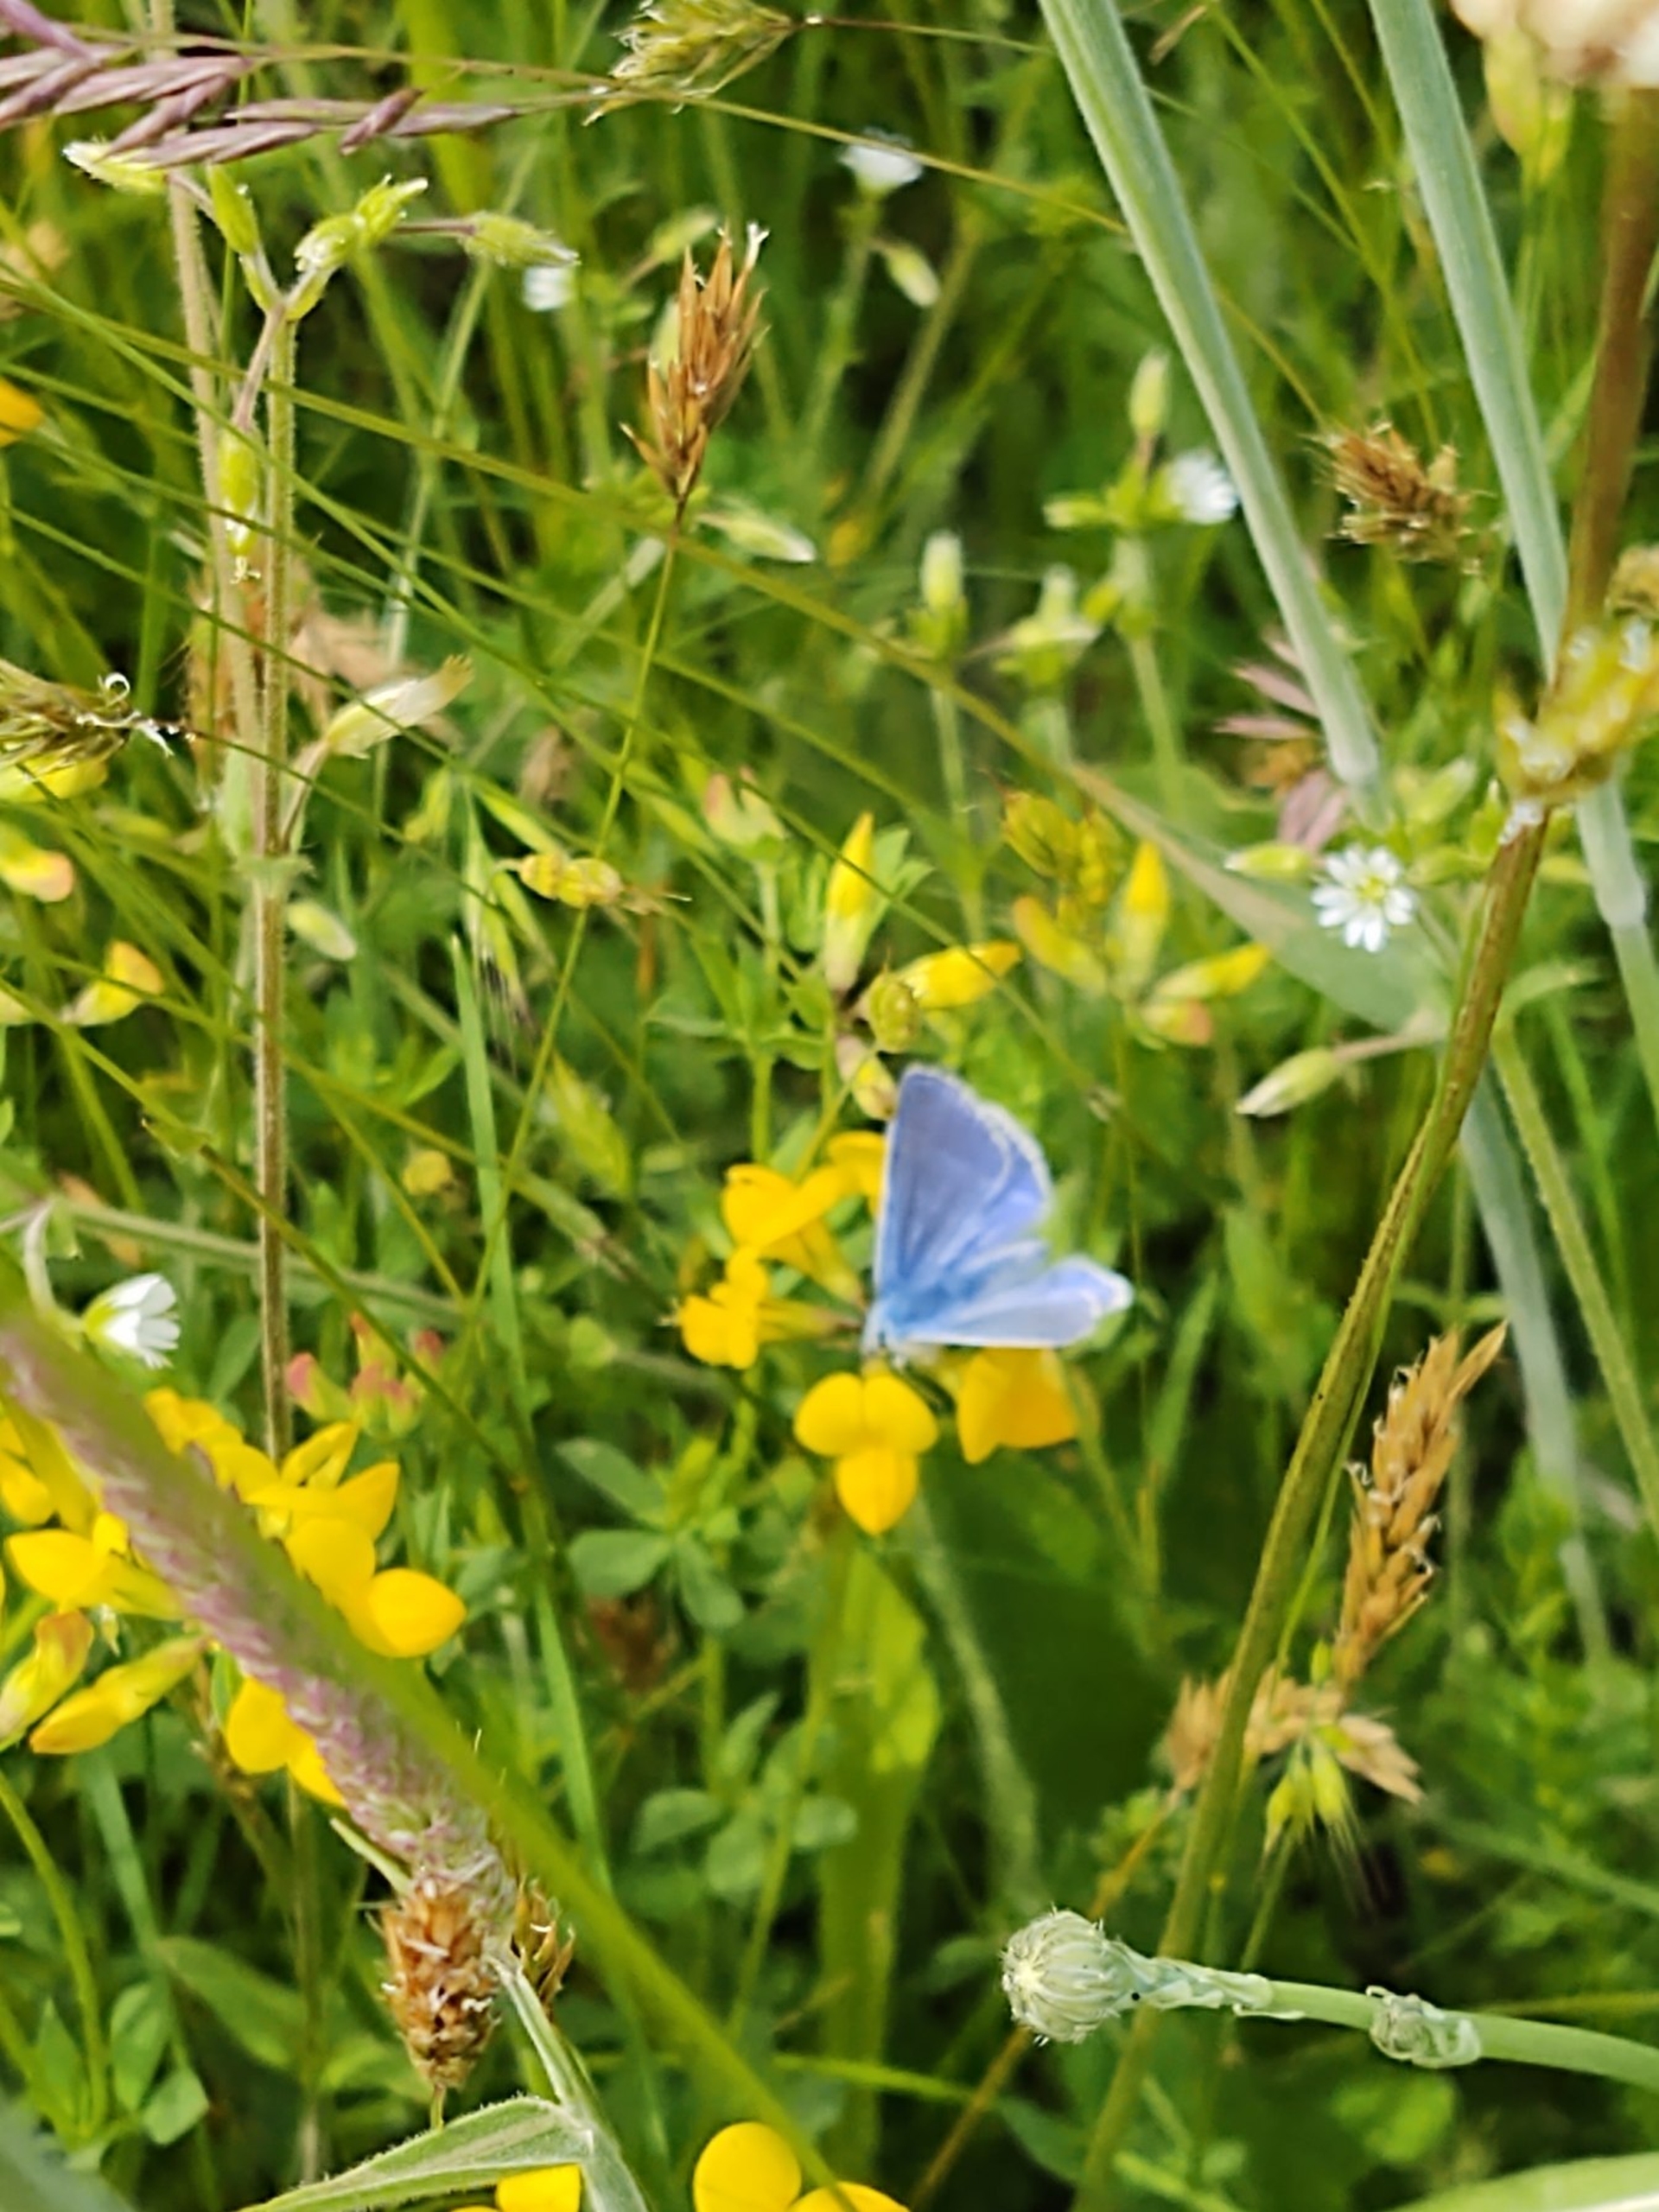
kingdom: Animalia
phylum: Arthropoda
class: Insecta
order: Lepidoptera
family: Lycaenidae
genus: Polyommatus
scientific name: Polyommatus icarus
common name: Almindelig blåfugl
